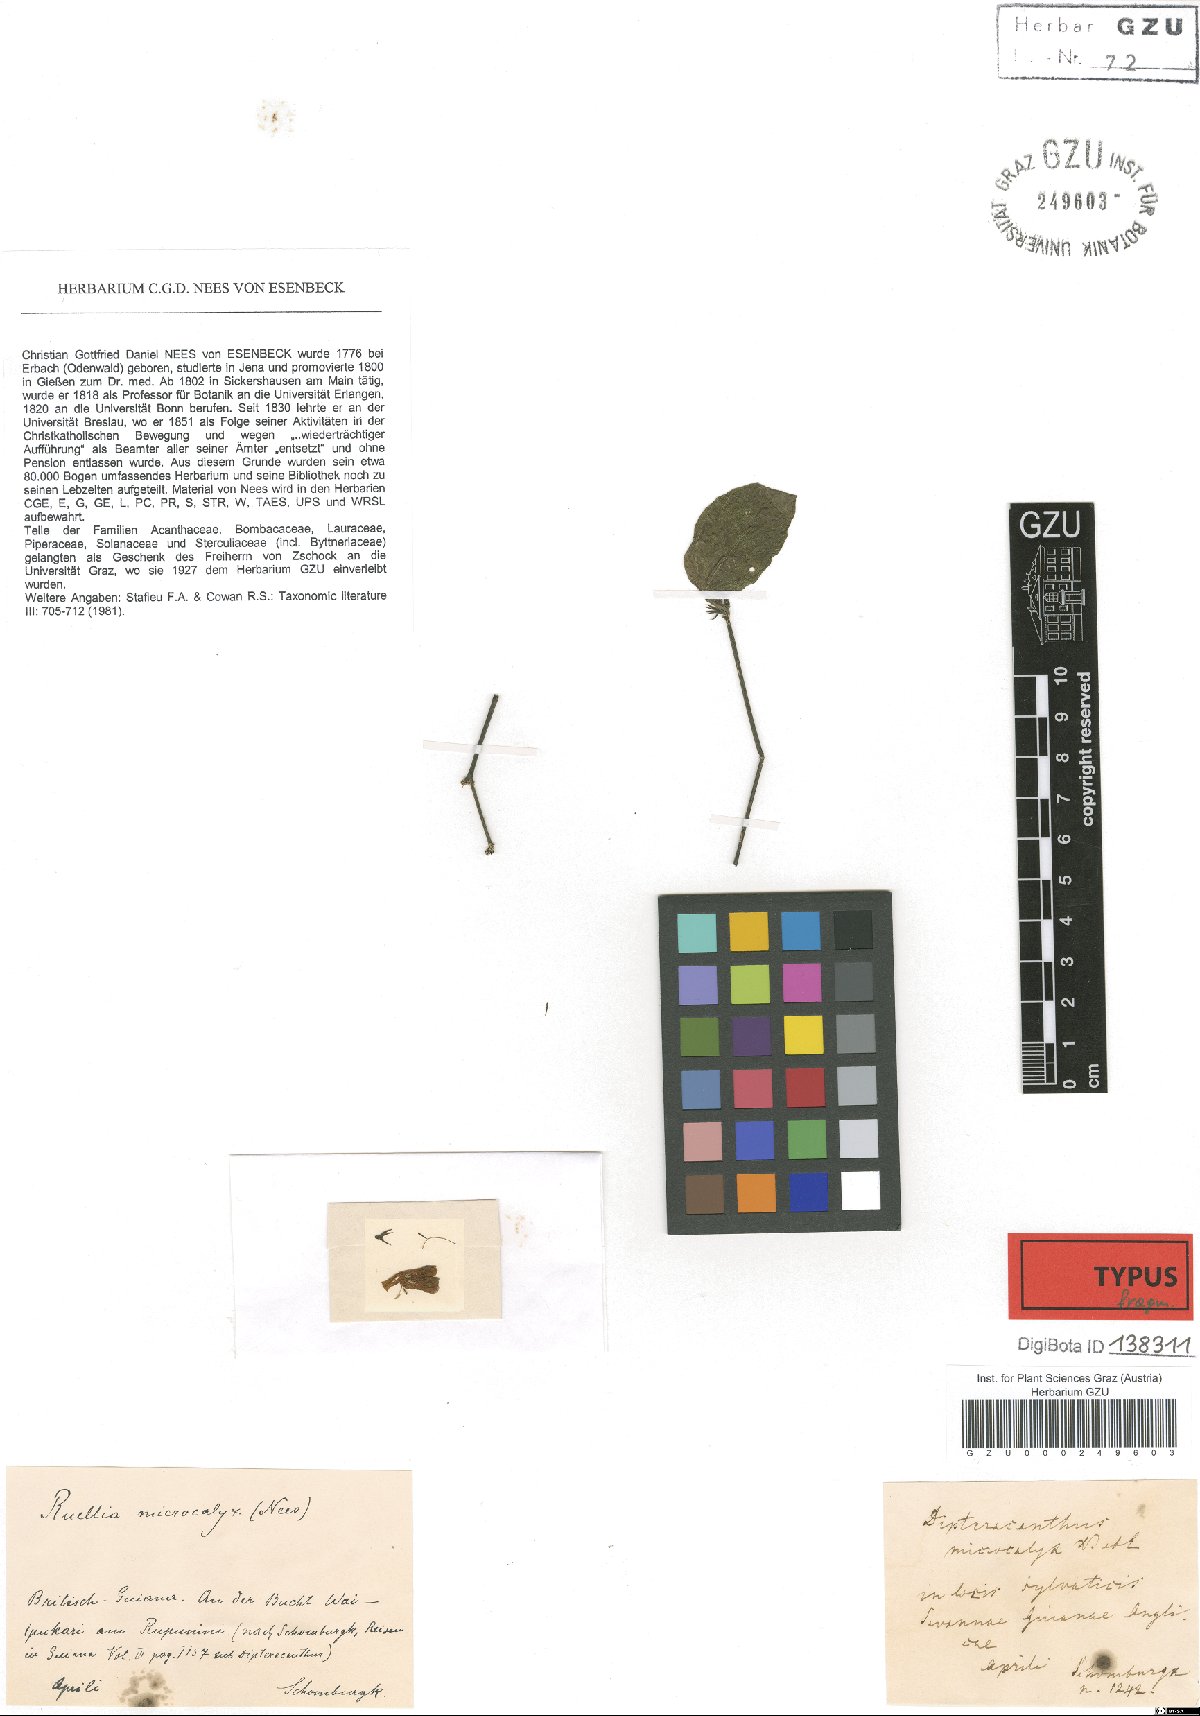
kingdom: Plantae
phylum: Tracheophyta
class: Magnoliopsida
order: Lamiales
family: Acanthaceae
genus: Ruellia
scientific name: Ruellia microcalyx
